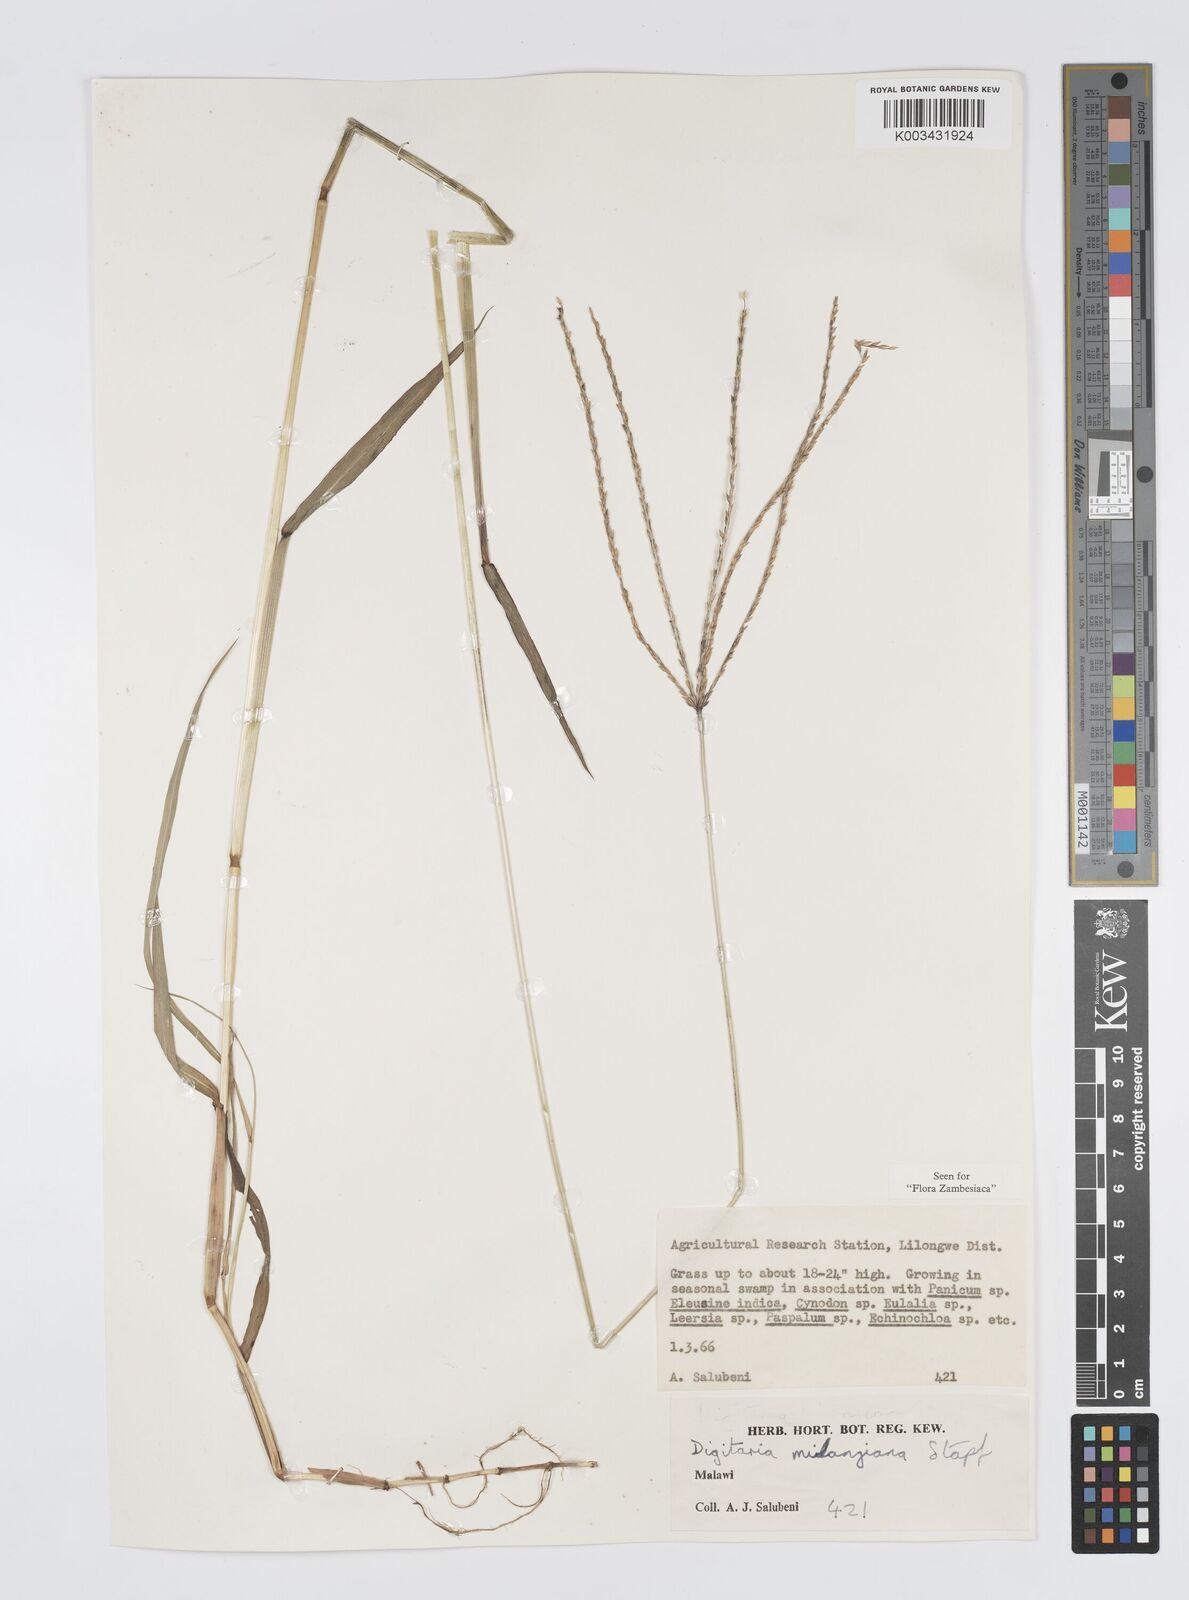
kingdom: Plantae
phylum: Tracheophyta
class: Liliopsida
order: Poales
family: Poaceae
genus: Digitaria
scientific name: Digitaria milanjiana
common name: Madagascar crabgrass
